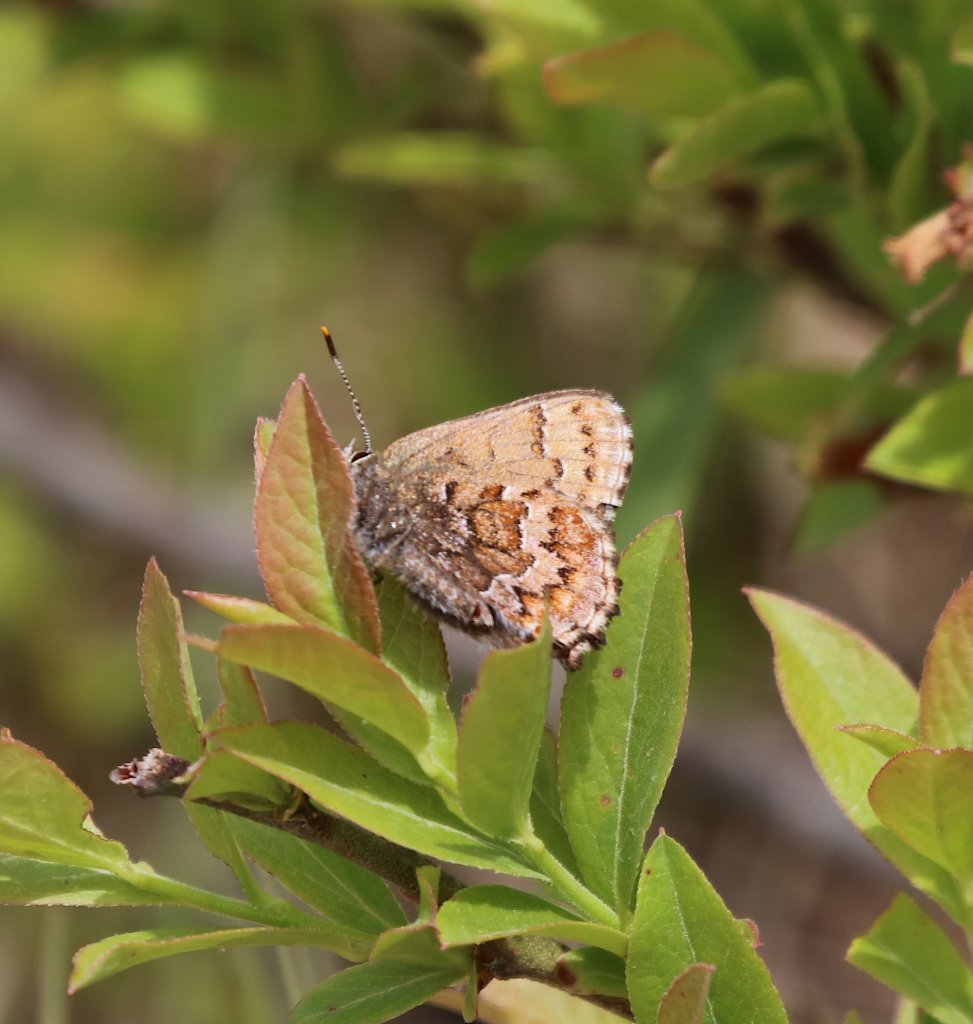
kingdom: Animalia
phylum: Arthropoda
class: Insecta
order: Lepidoptera
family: Lycaenidae
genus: Incisalia
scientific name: Incisalia niphon
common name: Eastern Pine Elfin
